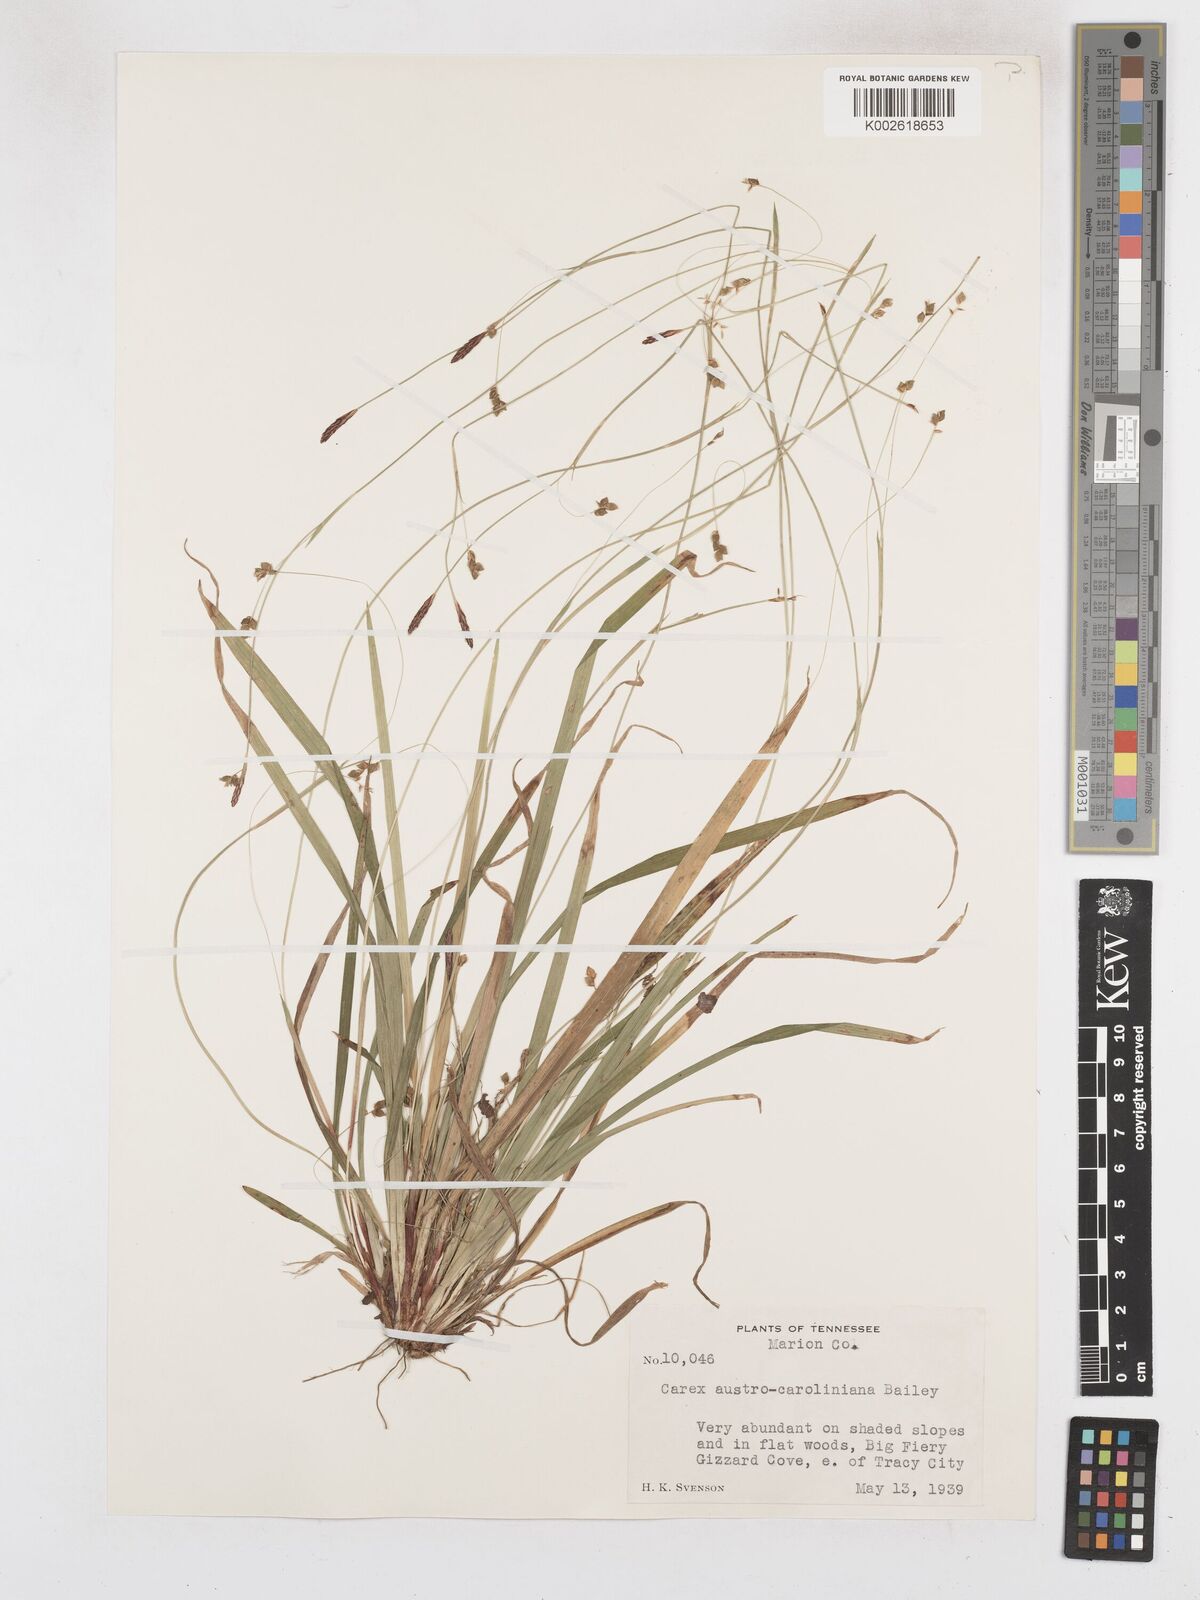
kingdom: Plantae
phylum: Tracheophyta
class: Liliopsida
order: Poales
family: Cyperaceae
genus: Carex
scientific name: Carex austrocaroliniana
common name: Tarheel sedge
